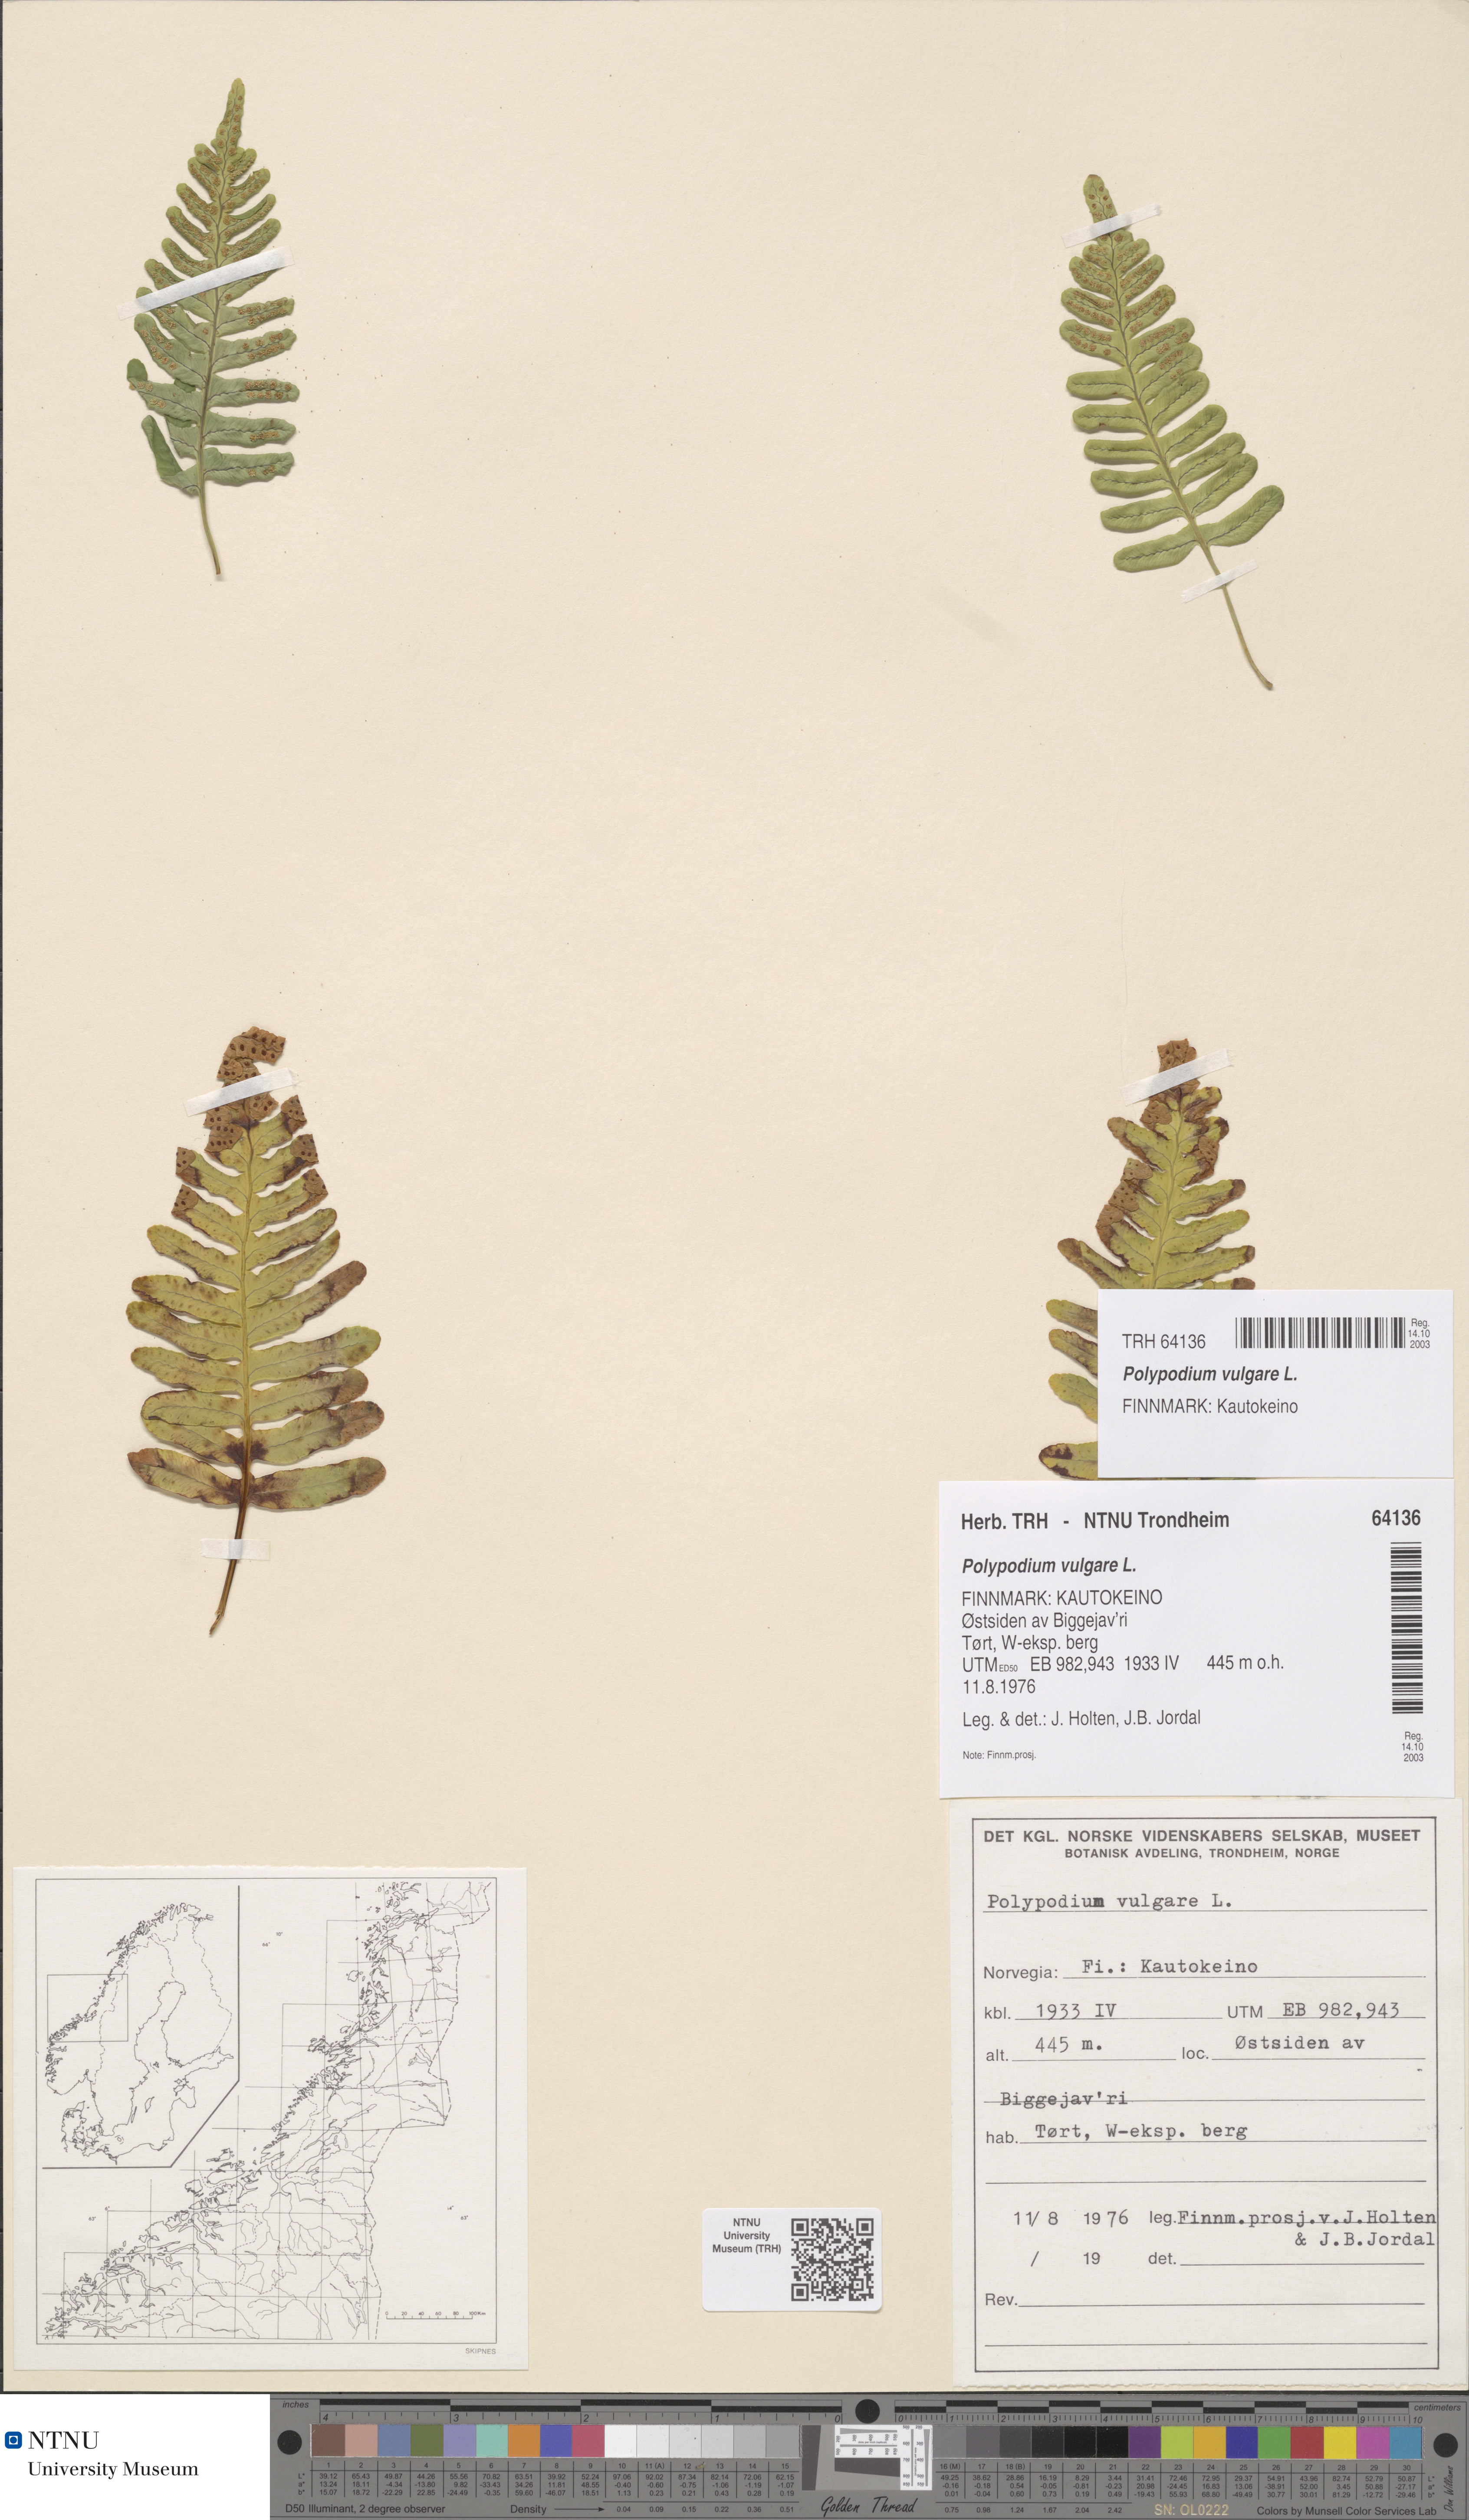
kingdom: Plantae
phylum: Tracheophyta
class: Polypodiopsida
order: Polypodiales
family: Polypodiaceae
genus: Polypodium
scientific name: Polypodium vulgare
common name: Common polypody
